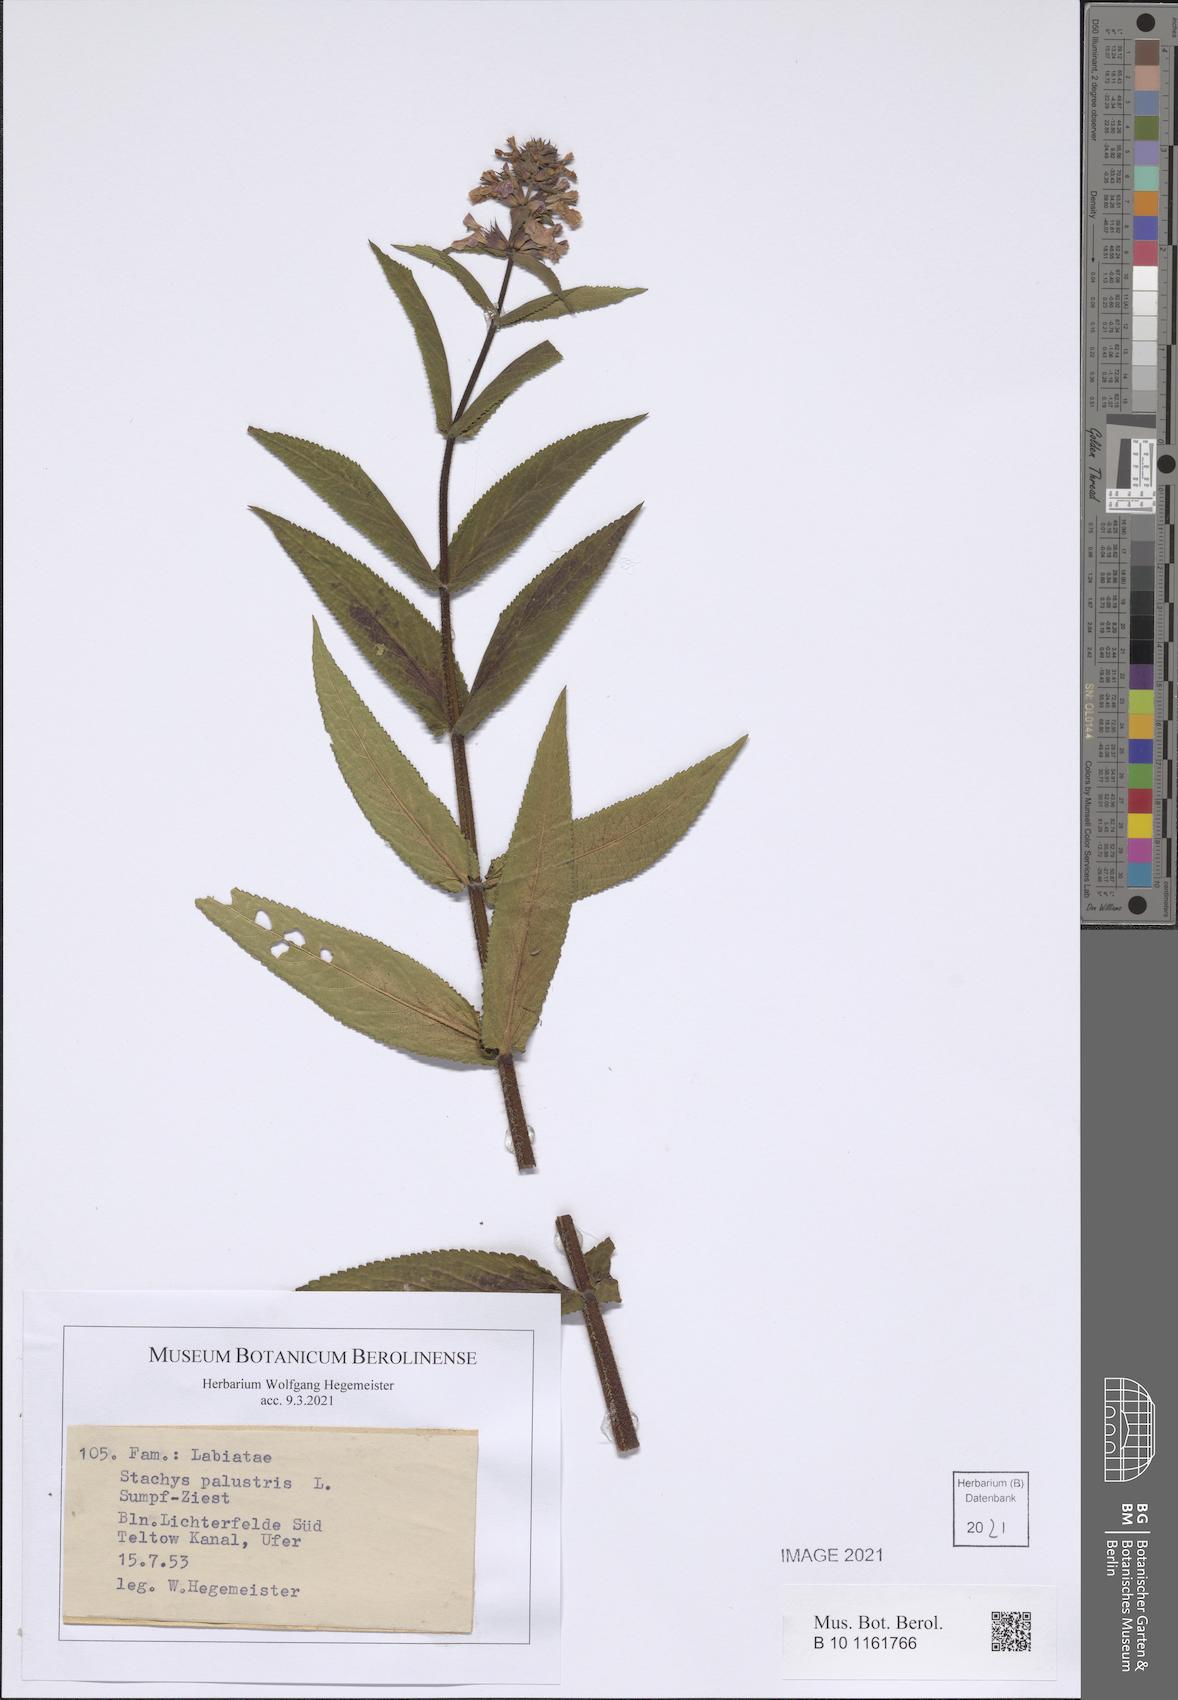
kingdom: Plantae
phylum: Tracheophyta
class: Magnoliopsida
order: Lamiales
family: Lamiaceae
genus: Stachys
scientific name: Stachys palustris
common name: Marsh woundwort
